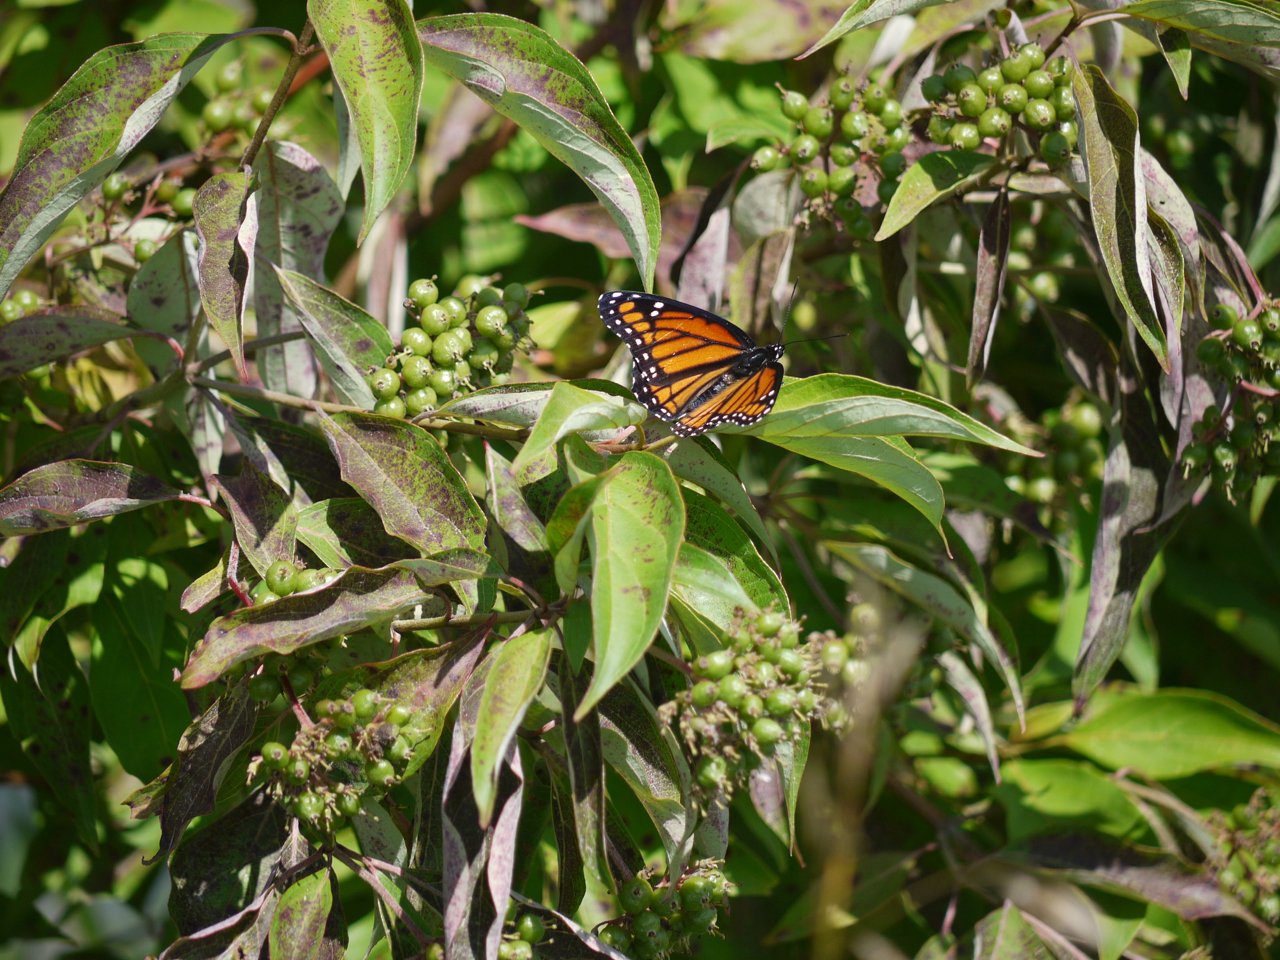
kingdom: Animalia
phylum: Arthropoda
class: Insecta
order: Lepidoptera
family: Nymphalidae
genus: Limenitis
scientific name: Limenitis archippus
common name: Viceroy
